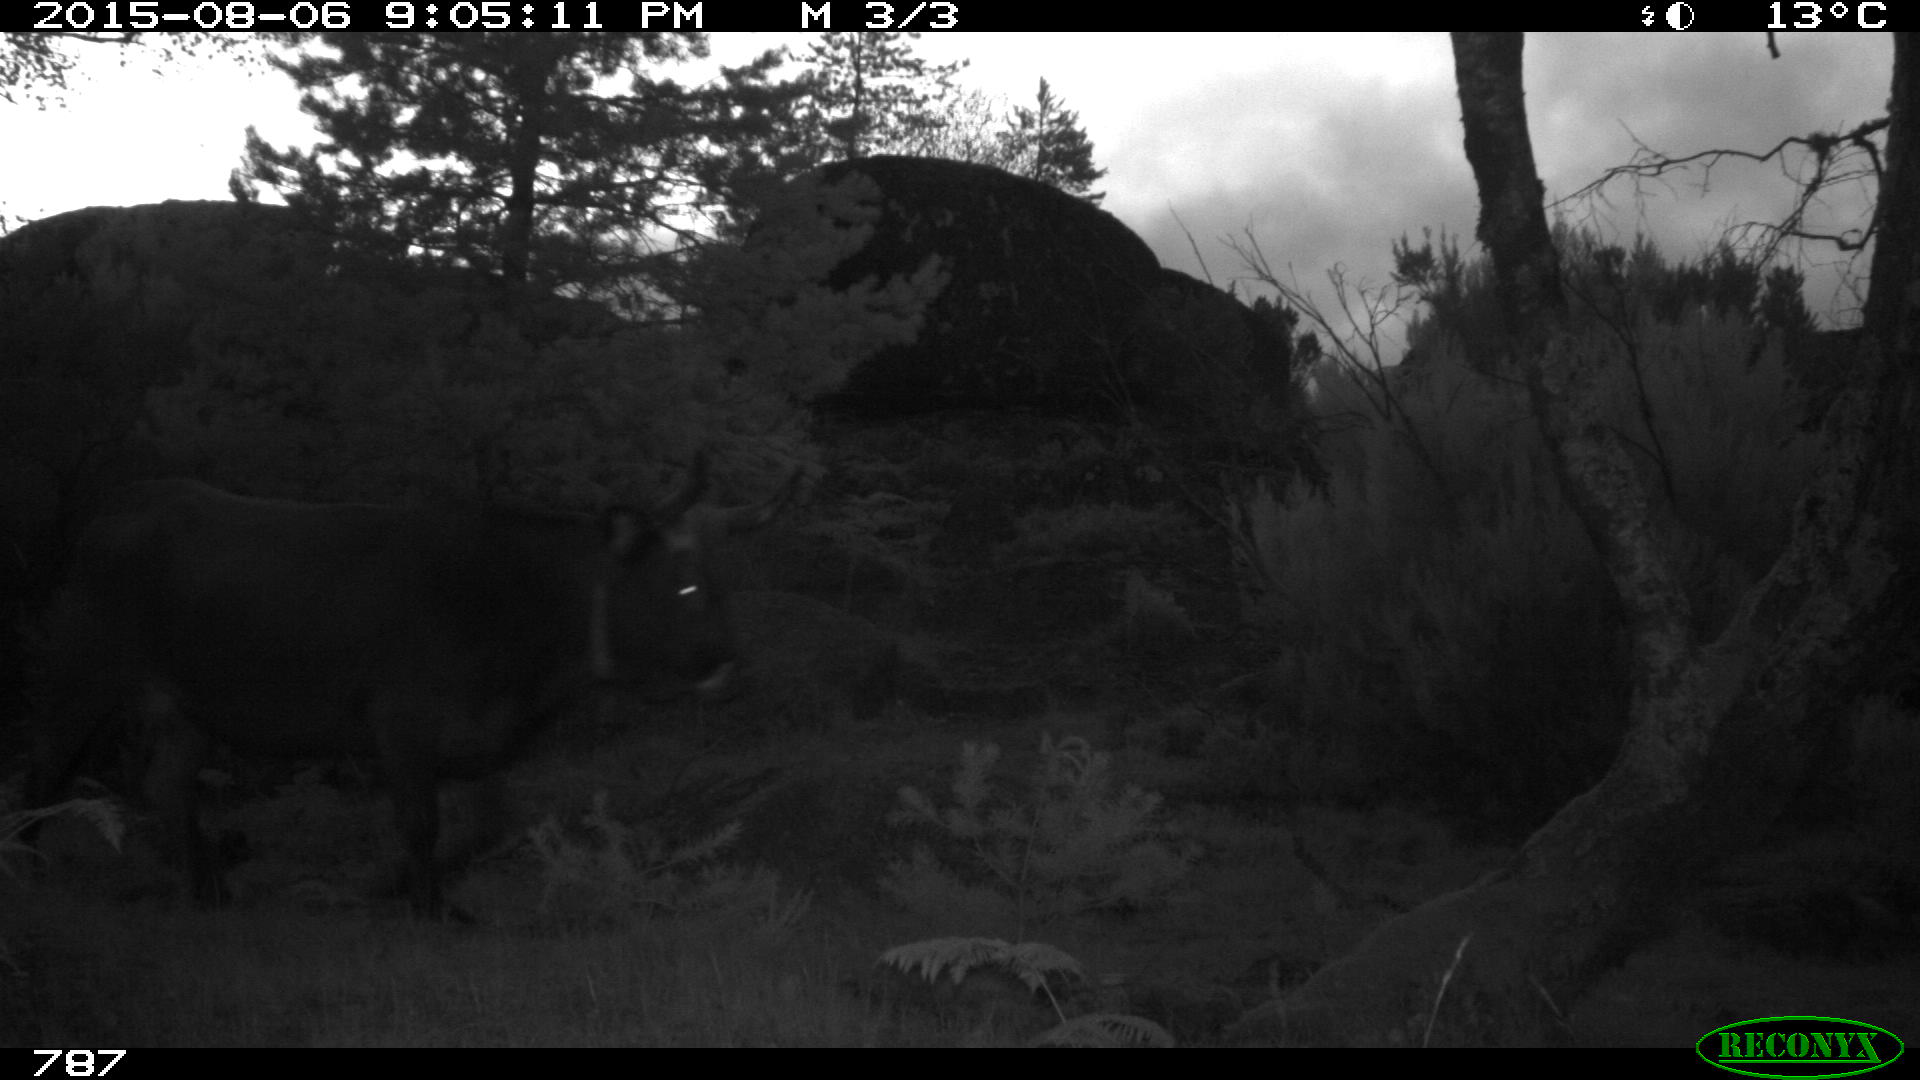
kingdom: Animalia
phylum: Chordata
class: Mammalia
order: Artiodactyla
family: Bovidae
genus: Bos
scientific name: Bos taurus
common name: Domesticated cattle
